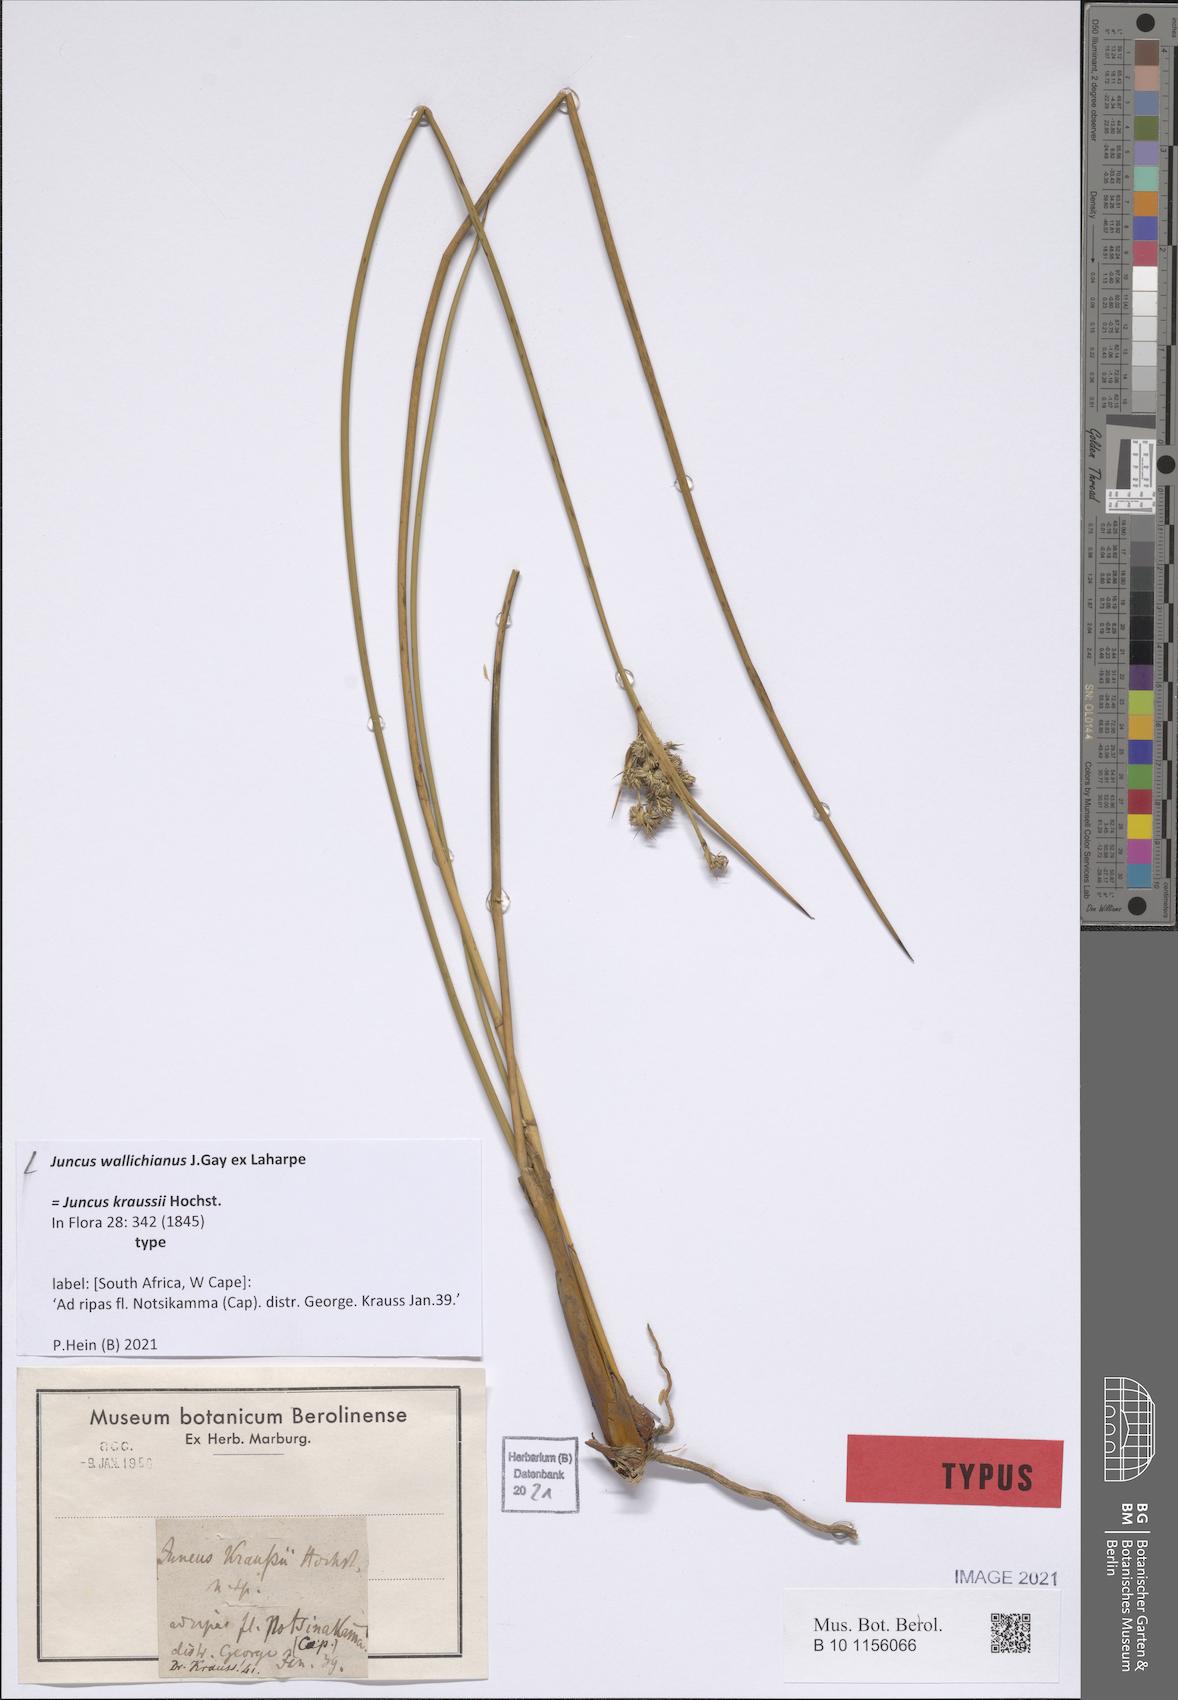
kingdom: Plantae
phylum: Tracheophyta
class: Liliopsida
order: Poales
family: Juncaceae
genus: Juncus
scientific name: Juncus maritimus
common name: Sea rush
